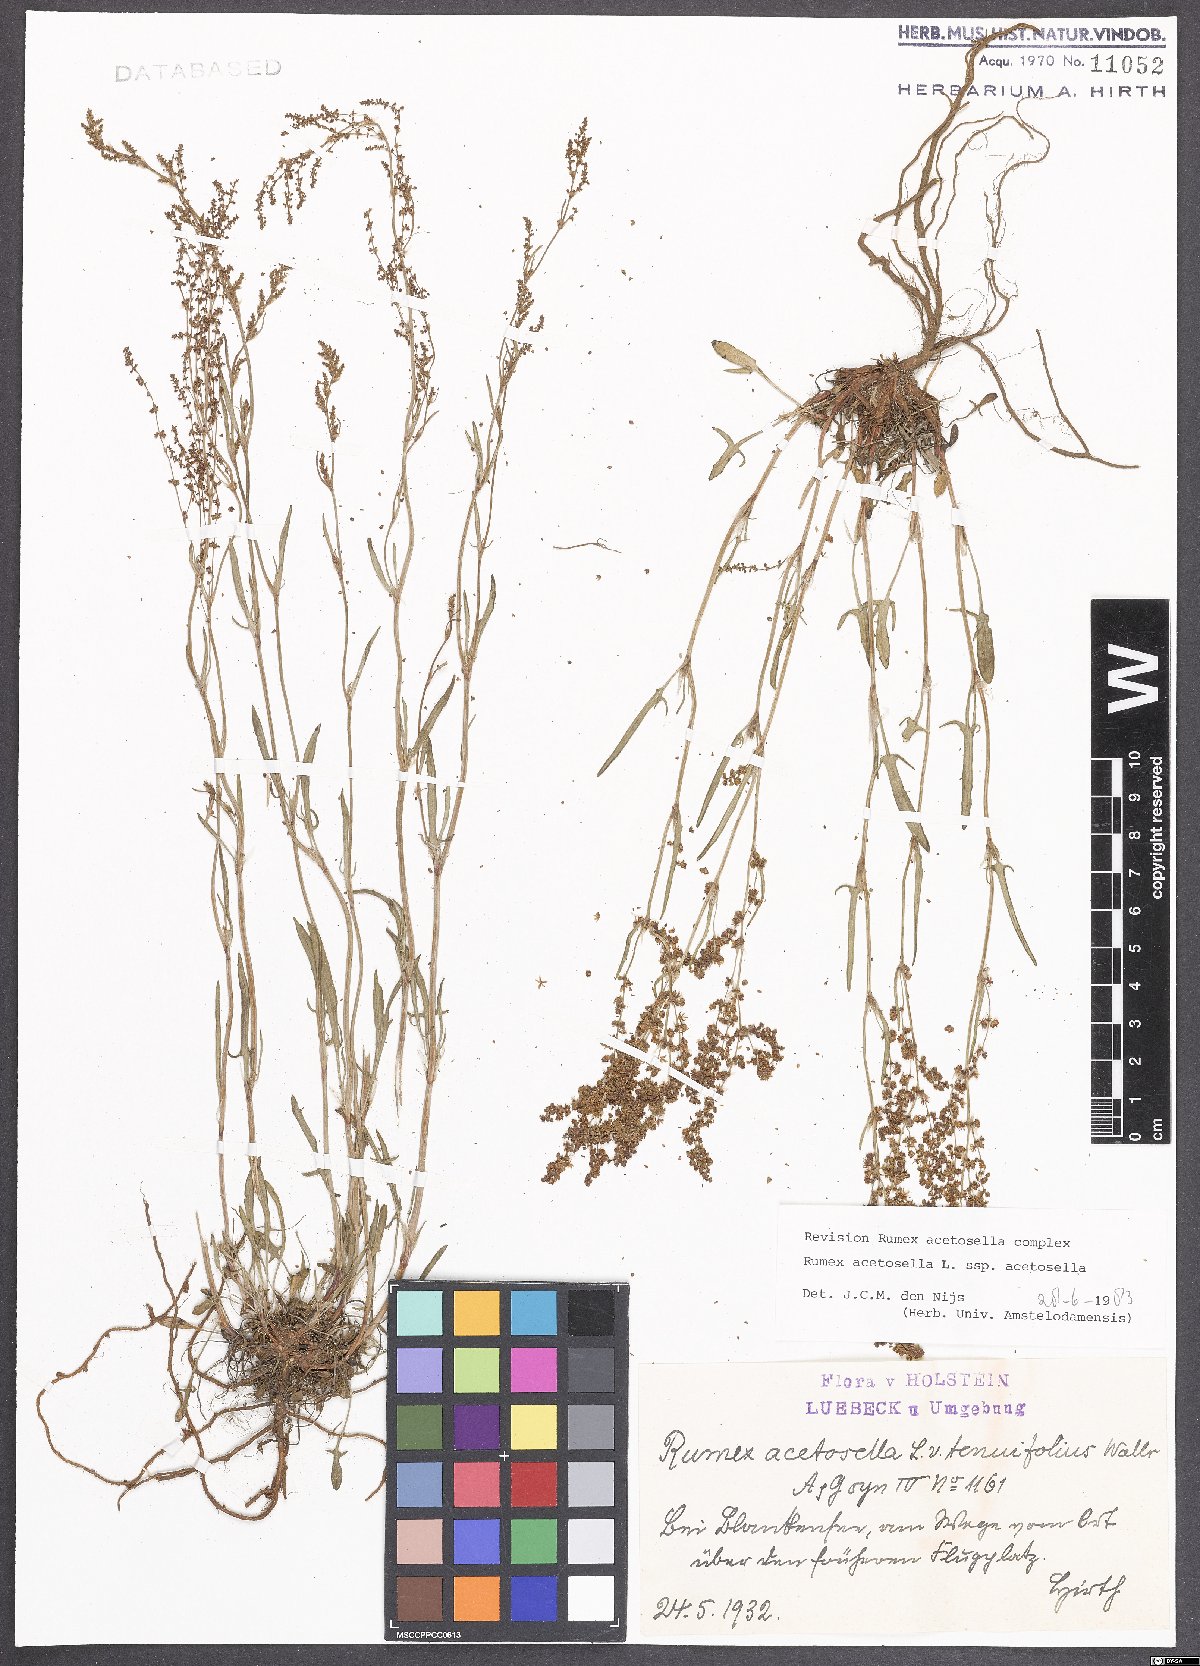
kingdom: Plantae
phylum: Tracheophyta
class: Magnoliopsida
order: Caryophyllales
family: Polygonaceae
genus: Rumex
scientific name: Rumex acetosella
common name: Common sheep sorrel
